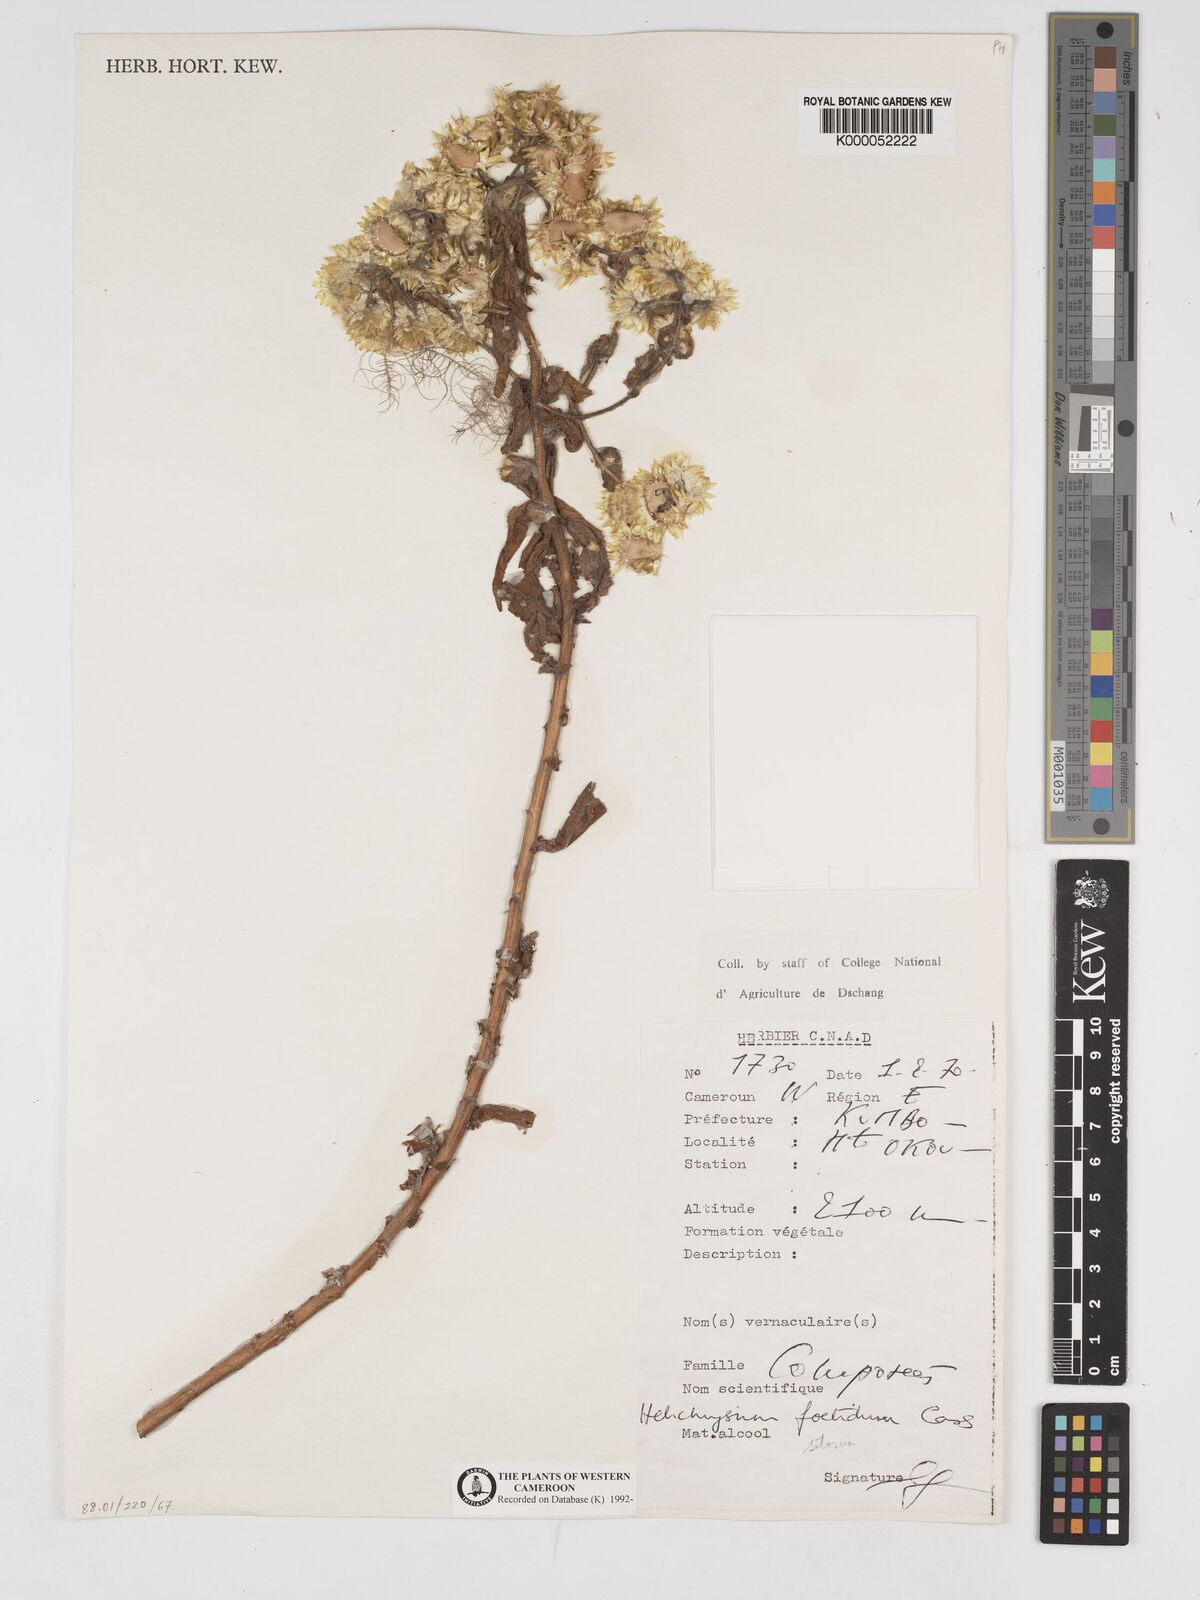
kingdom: Plantae
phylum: Tracheophyta
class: Magnoliopsida
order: Asterales
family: Asteraceae
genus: Helichrysum
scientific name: Helichrysum setosum
